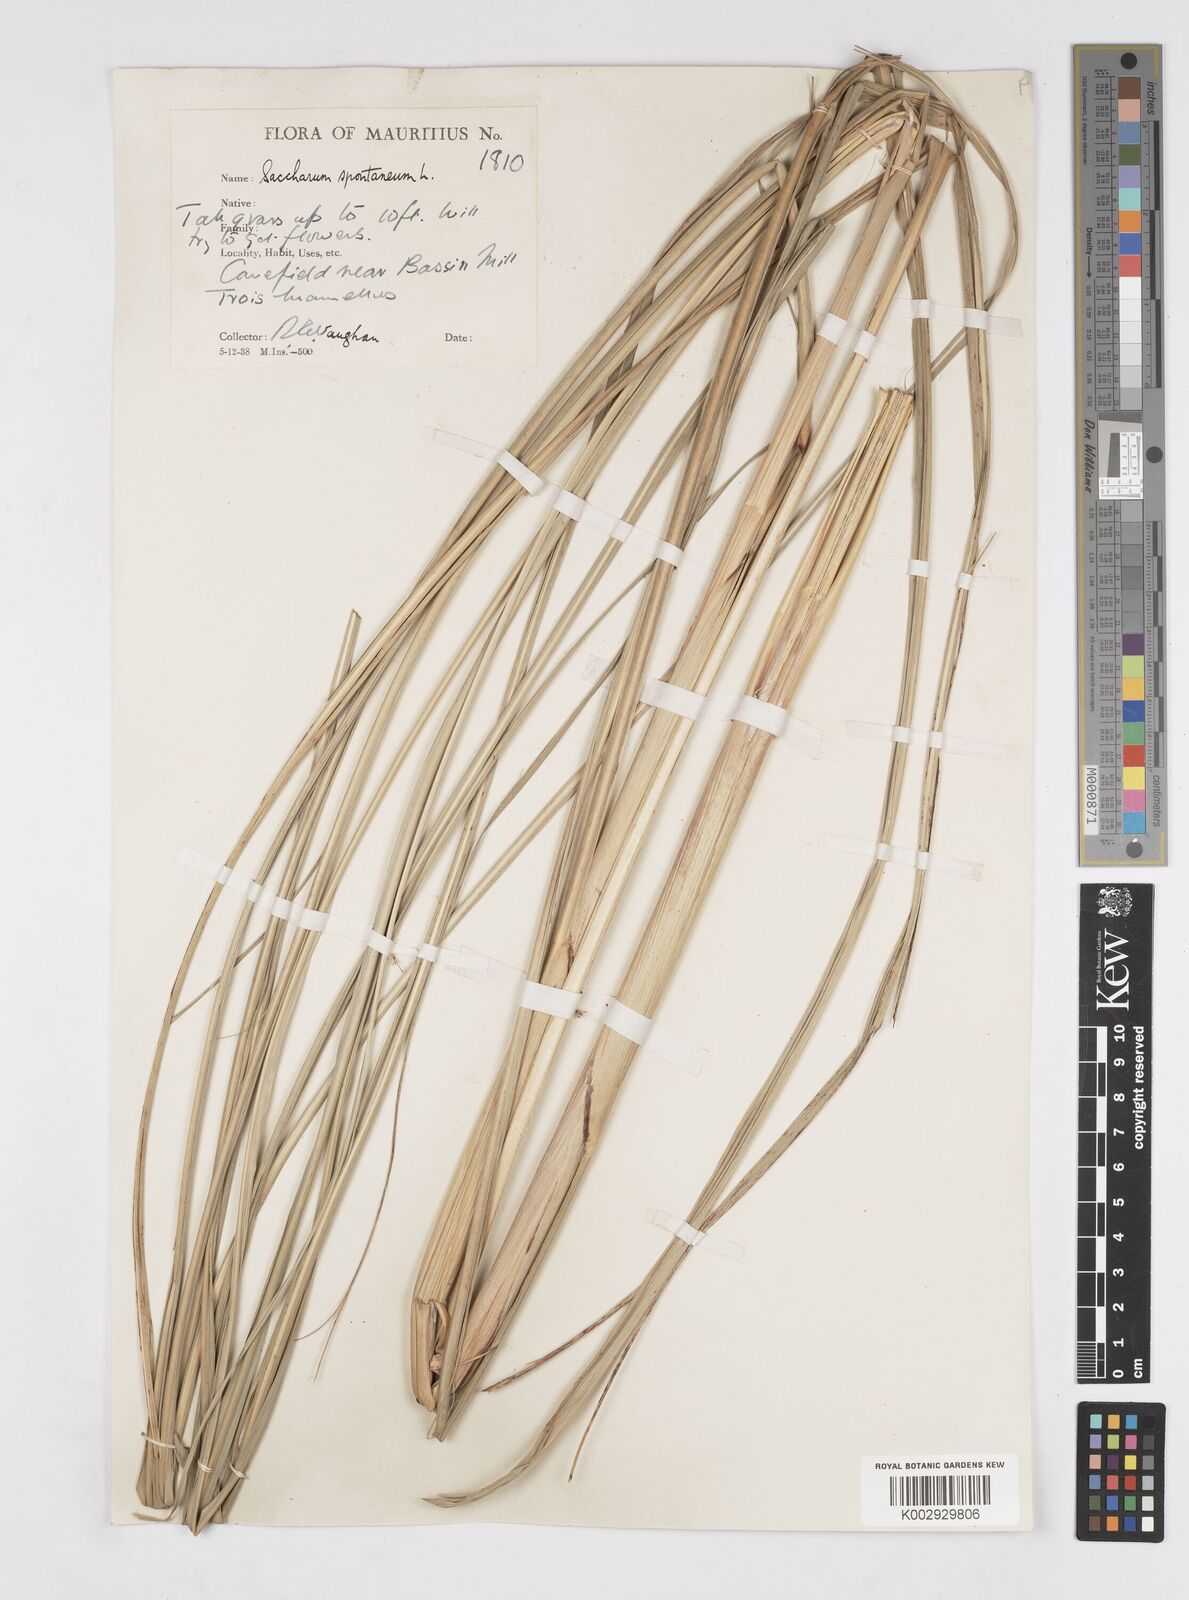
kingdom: Plantae
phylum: Tracheophyta
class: Liliopsida
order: Poales
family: Poaceae
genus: Saccharum
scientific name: Saccharum spontaneum
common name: Wild sugarcane
